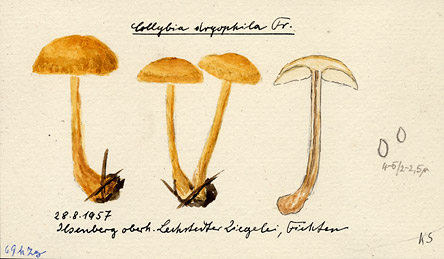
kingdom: Fungi
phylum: Basidiomycota
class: Agaricomycetes
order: Agaricales
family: Omphalotaceae
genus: Gymnopus
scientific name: Gymnopus dryophilus
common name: Penny top
